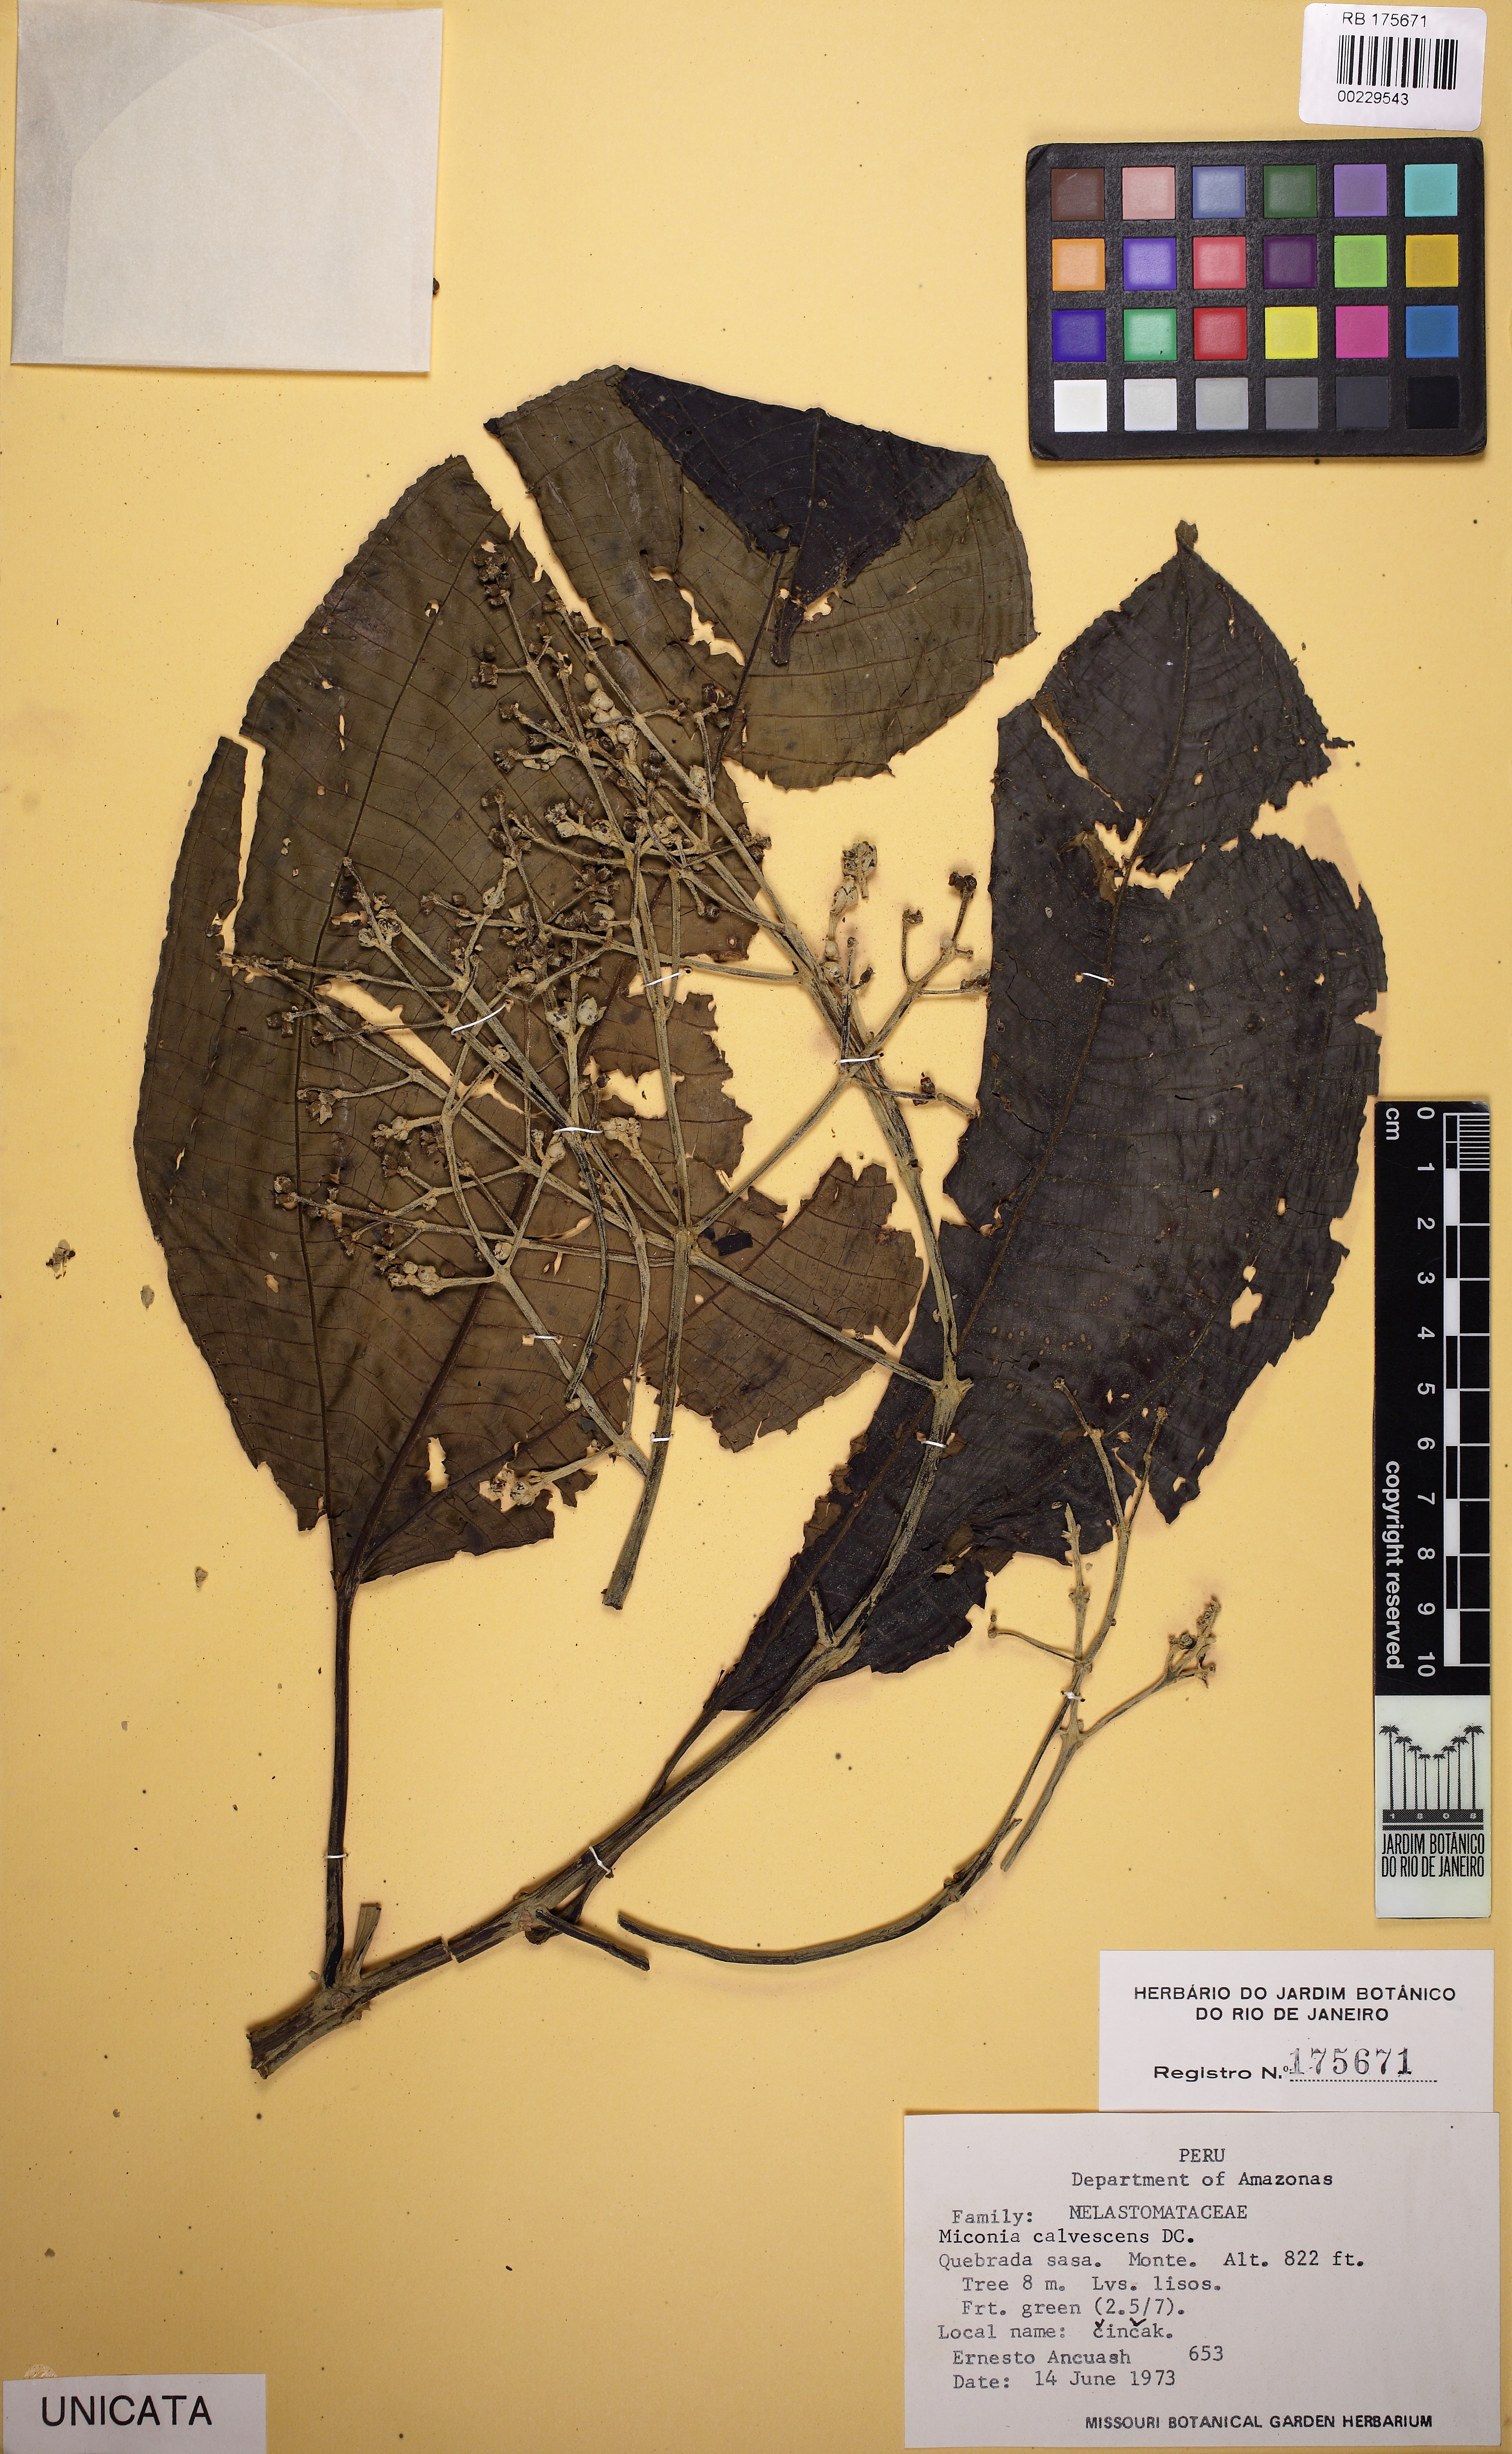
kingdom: Plantae
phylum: Tracheophyta
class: Magnoliopsida
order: Myrtales
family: Melastomataceae
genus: Miconia
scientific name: Miconia calvescens
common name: Purple plague
